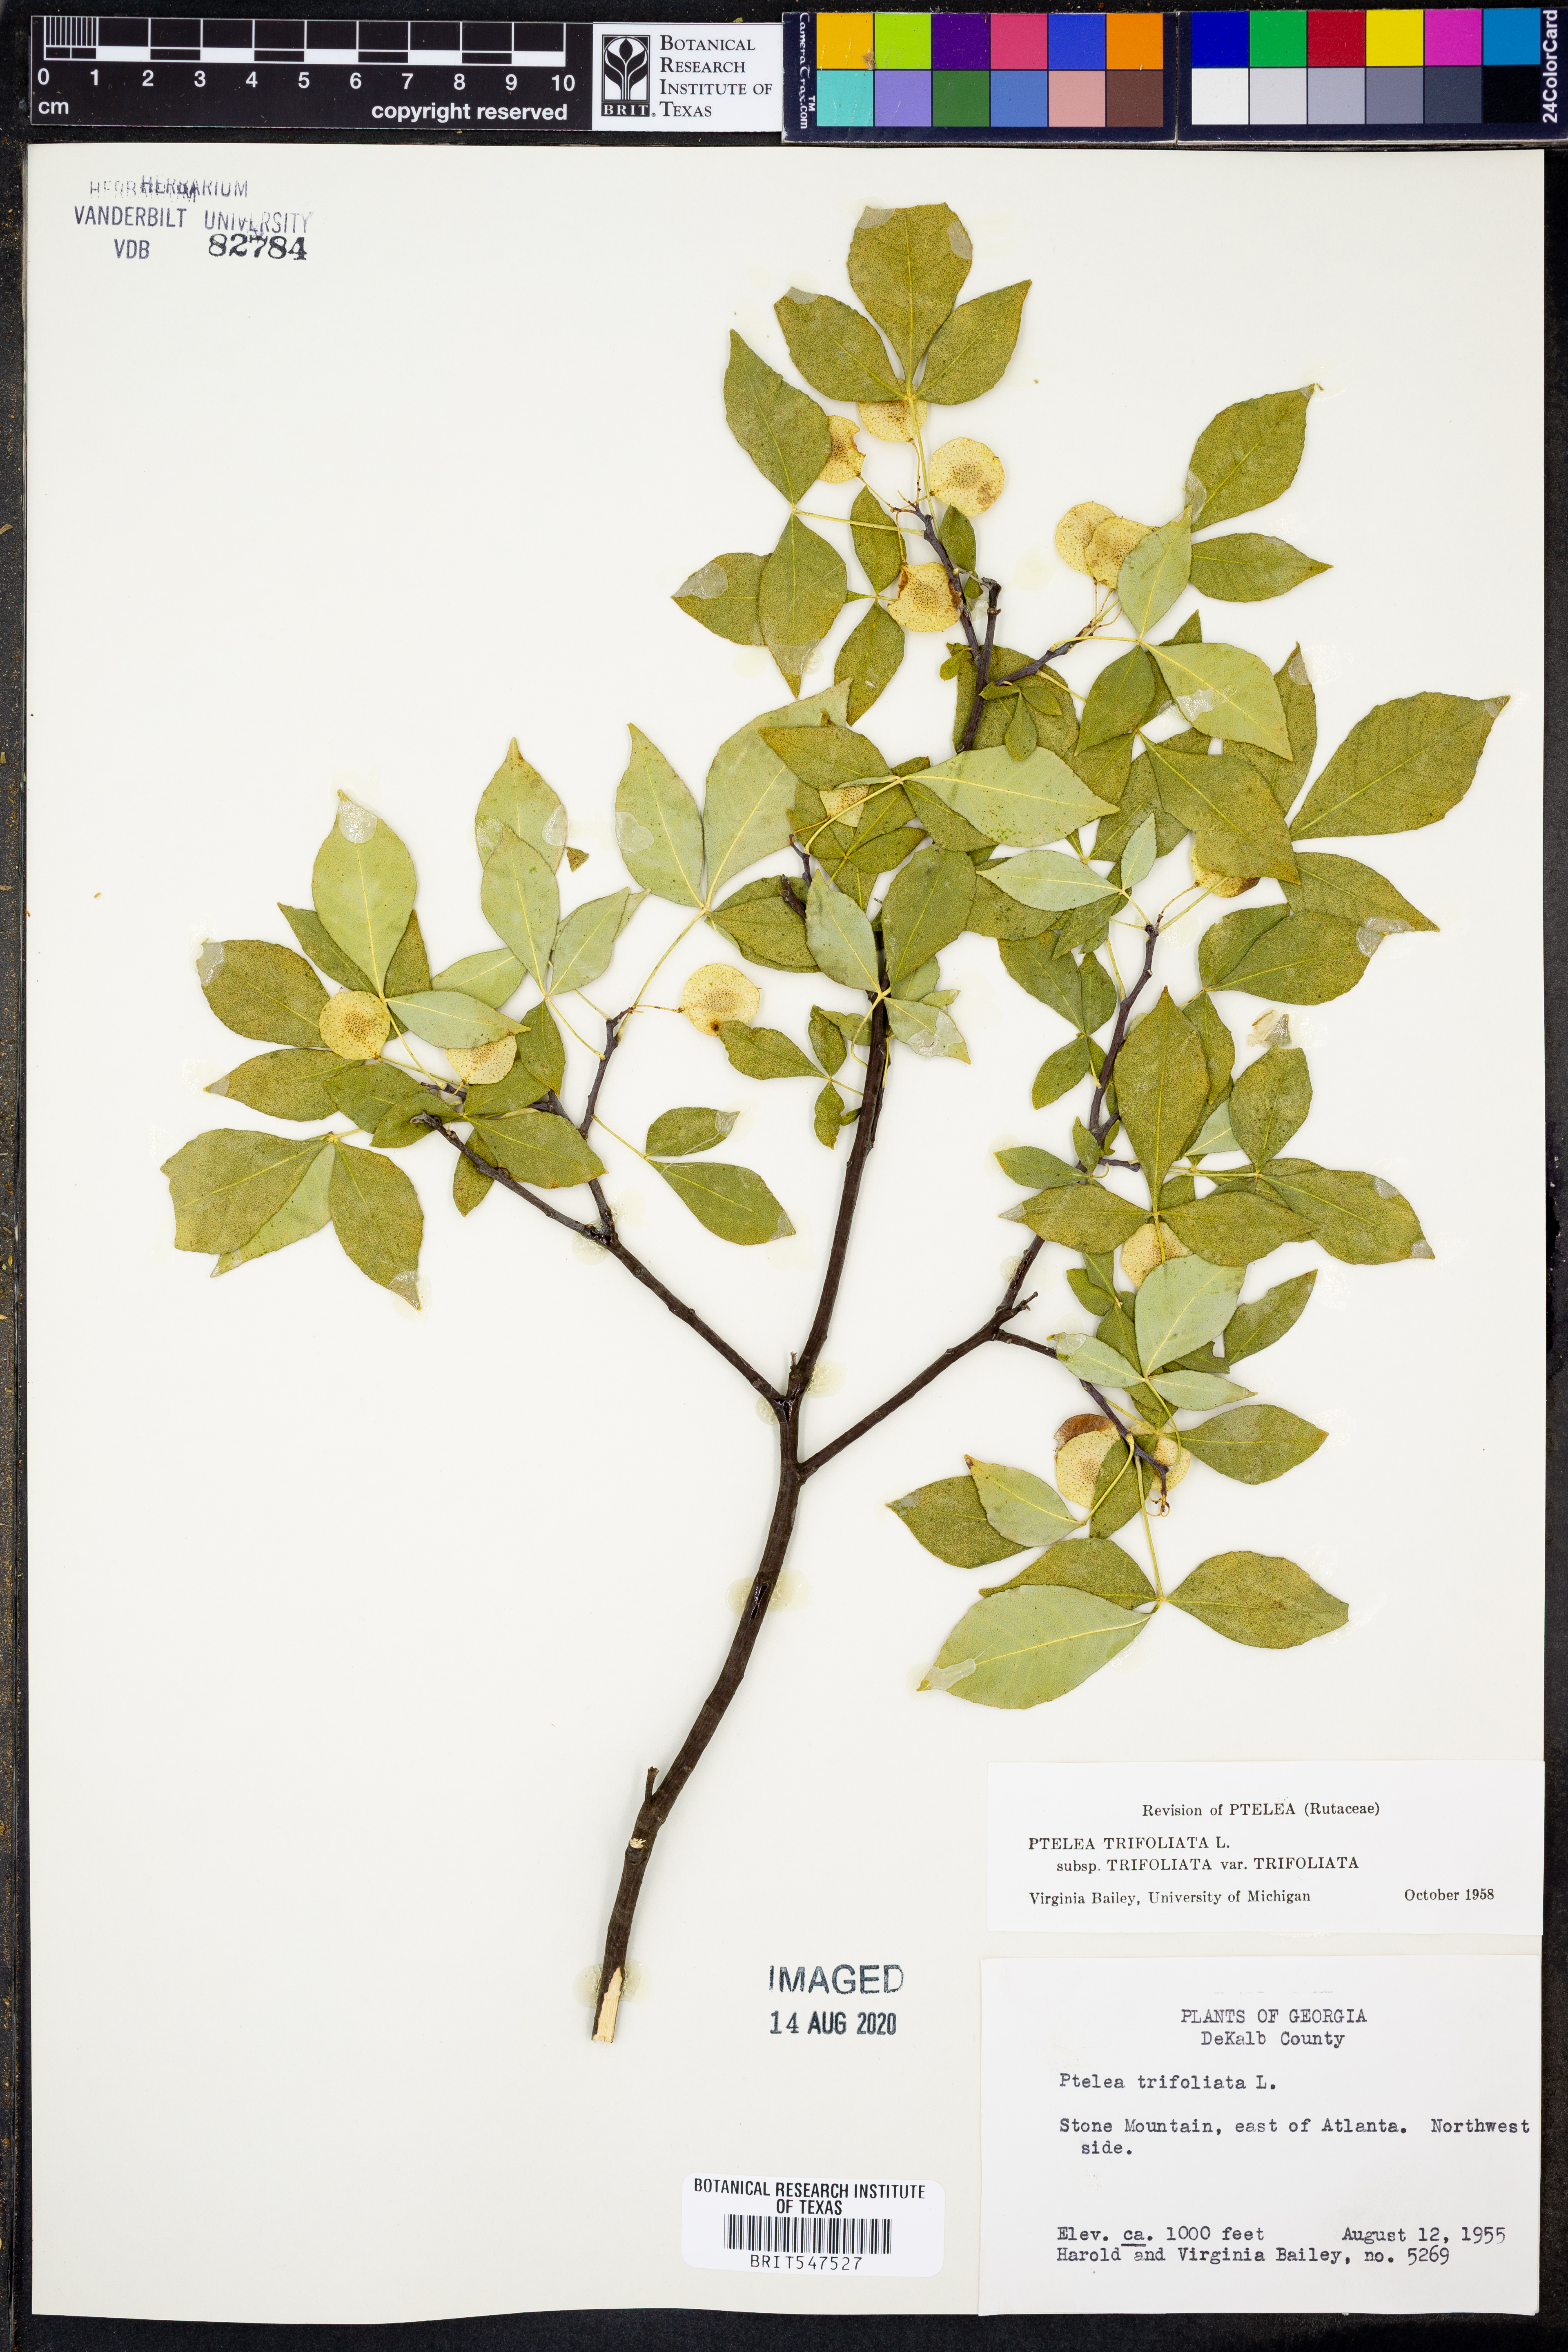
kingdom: Plantae
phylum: Tracheophyta
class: Magnoliopsida
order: Sapindales
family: Rutaceae
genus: Ptelea
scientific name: Ptelea trifoliata
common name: Common hop-tree
